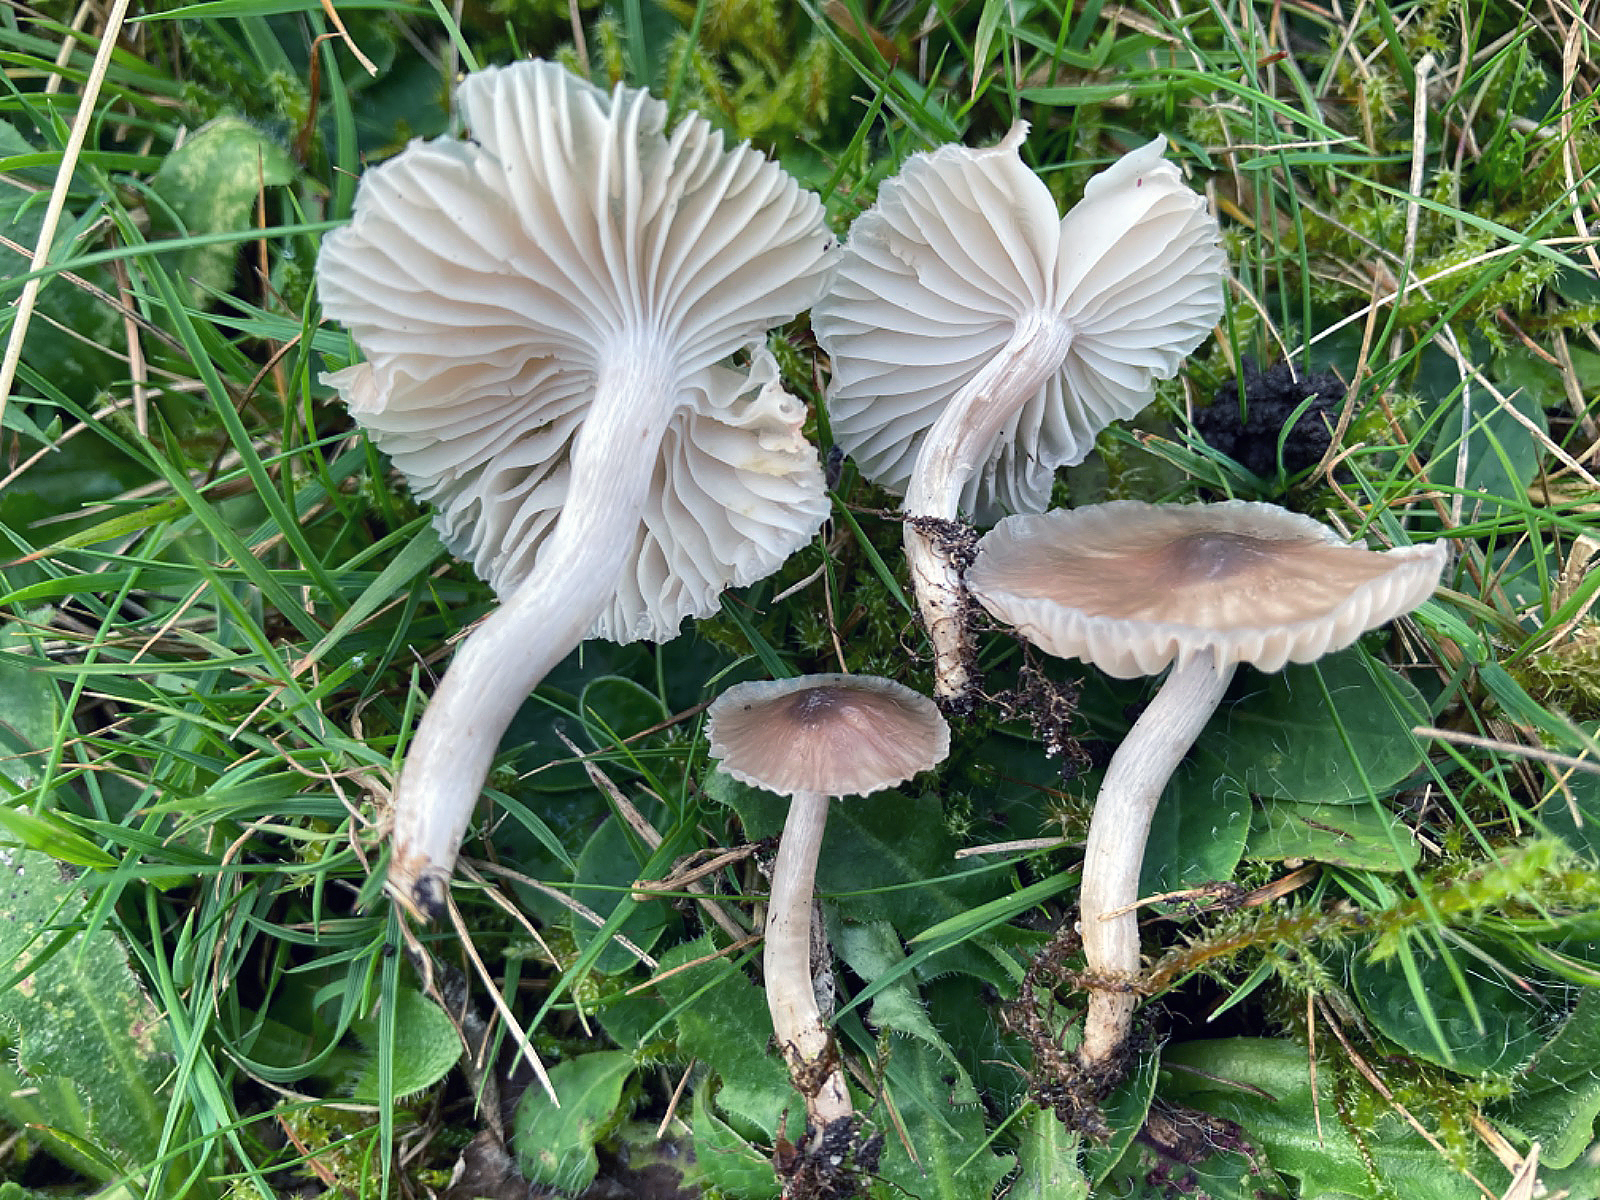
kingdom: Fungi
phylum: Basidiomycota
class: Agaricomycetes
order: Agaricales
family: Hygrophoraceae
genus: Cuphophyllus
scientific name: Cuphophyllus
